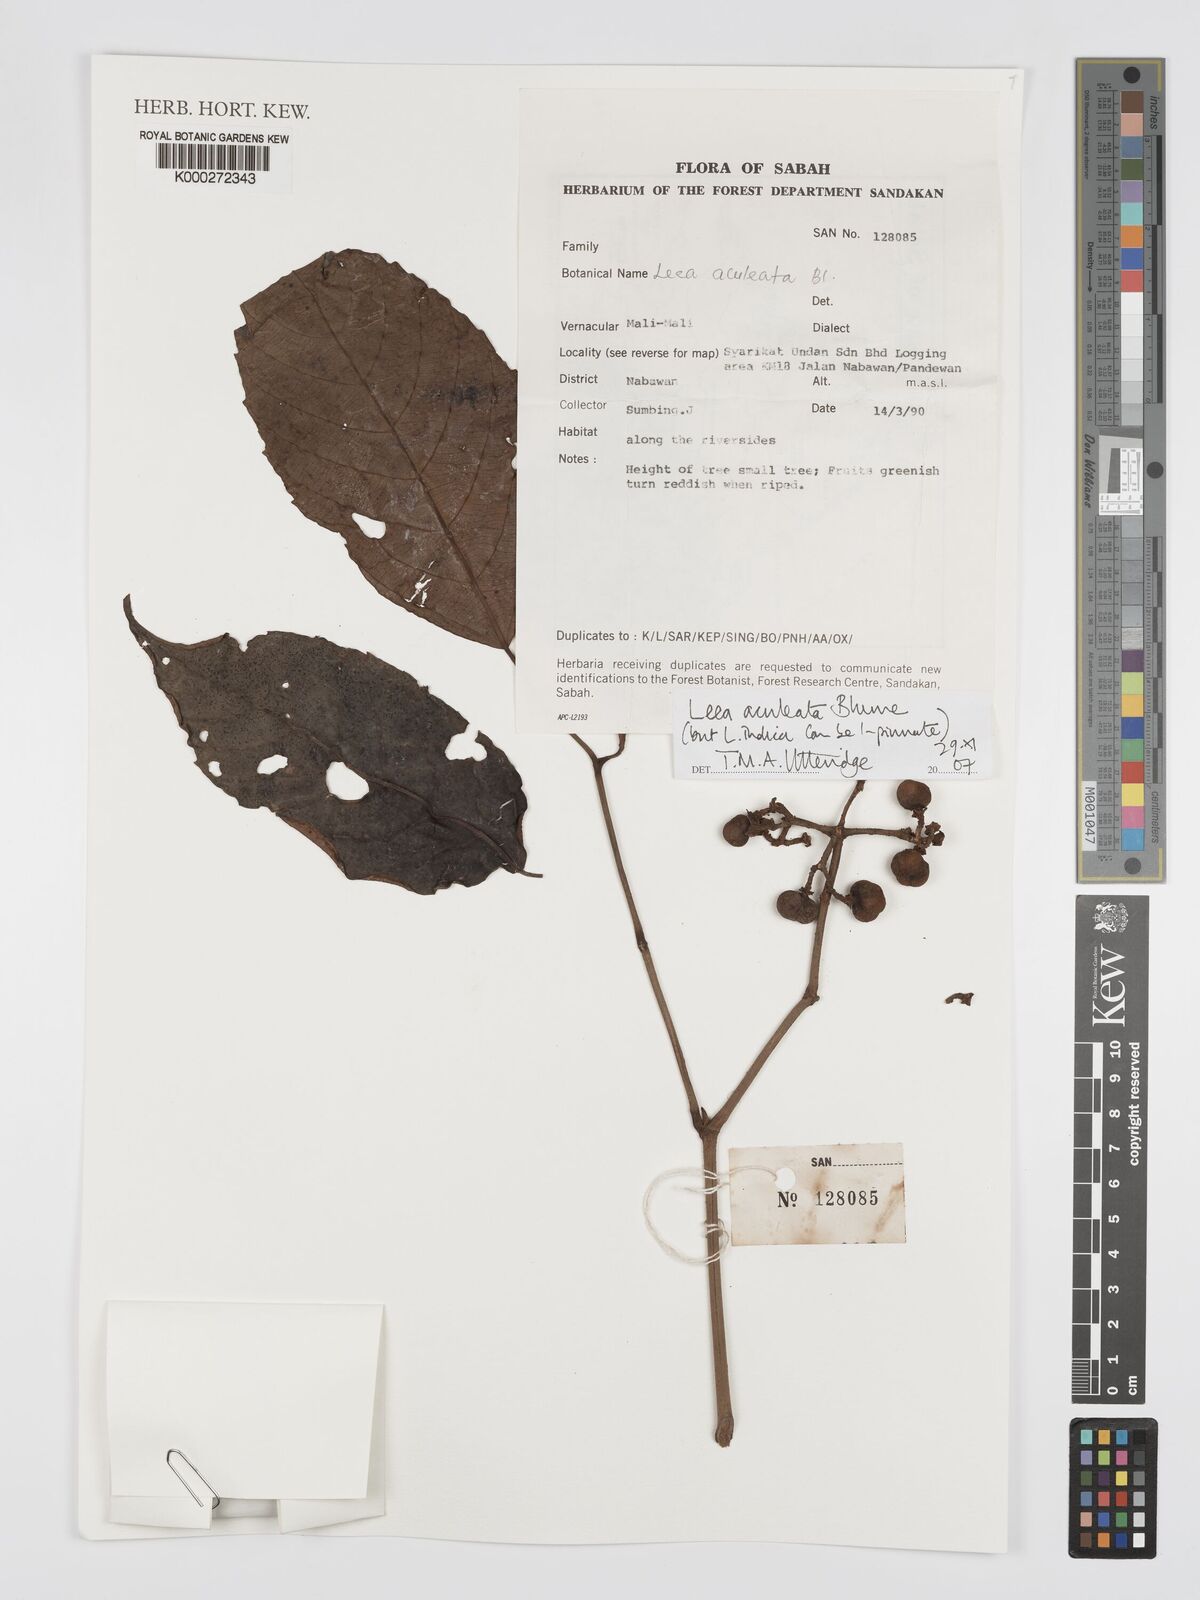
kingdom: Plantae
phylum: Tracheophyta
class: Magnoliopsida
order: Vitales
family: Vitaceae
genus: Leea
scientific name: Leea aculeata
